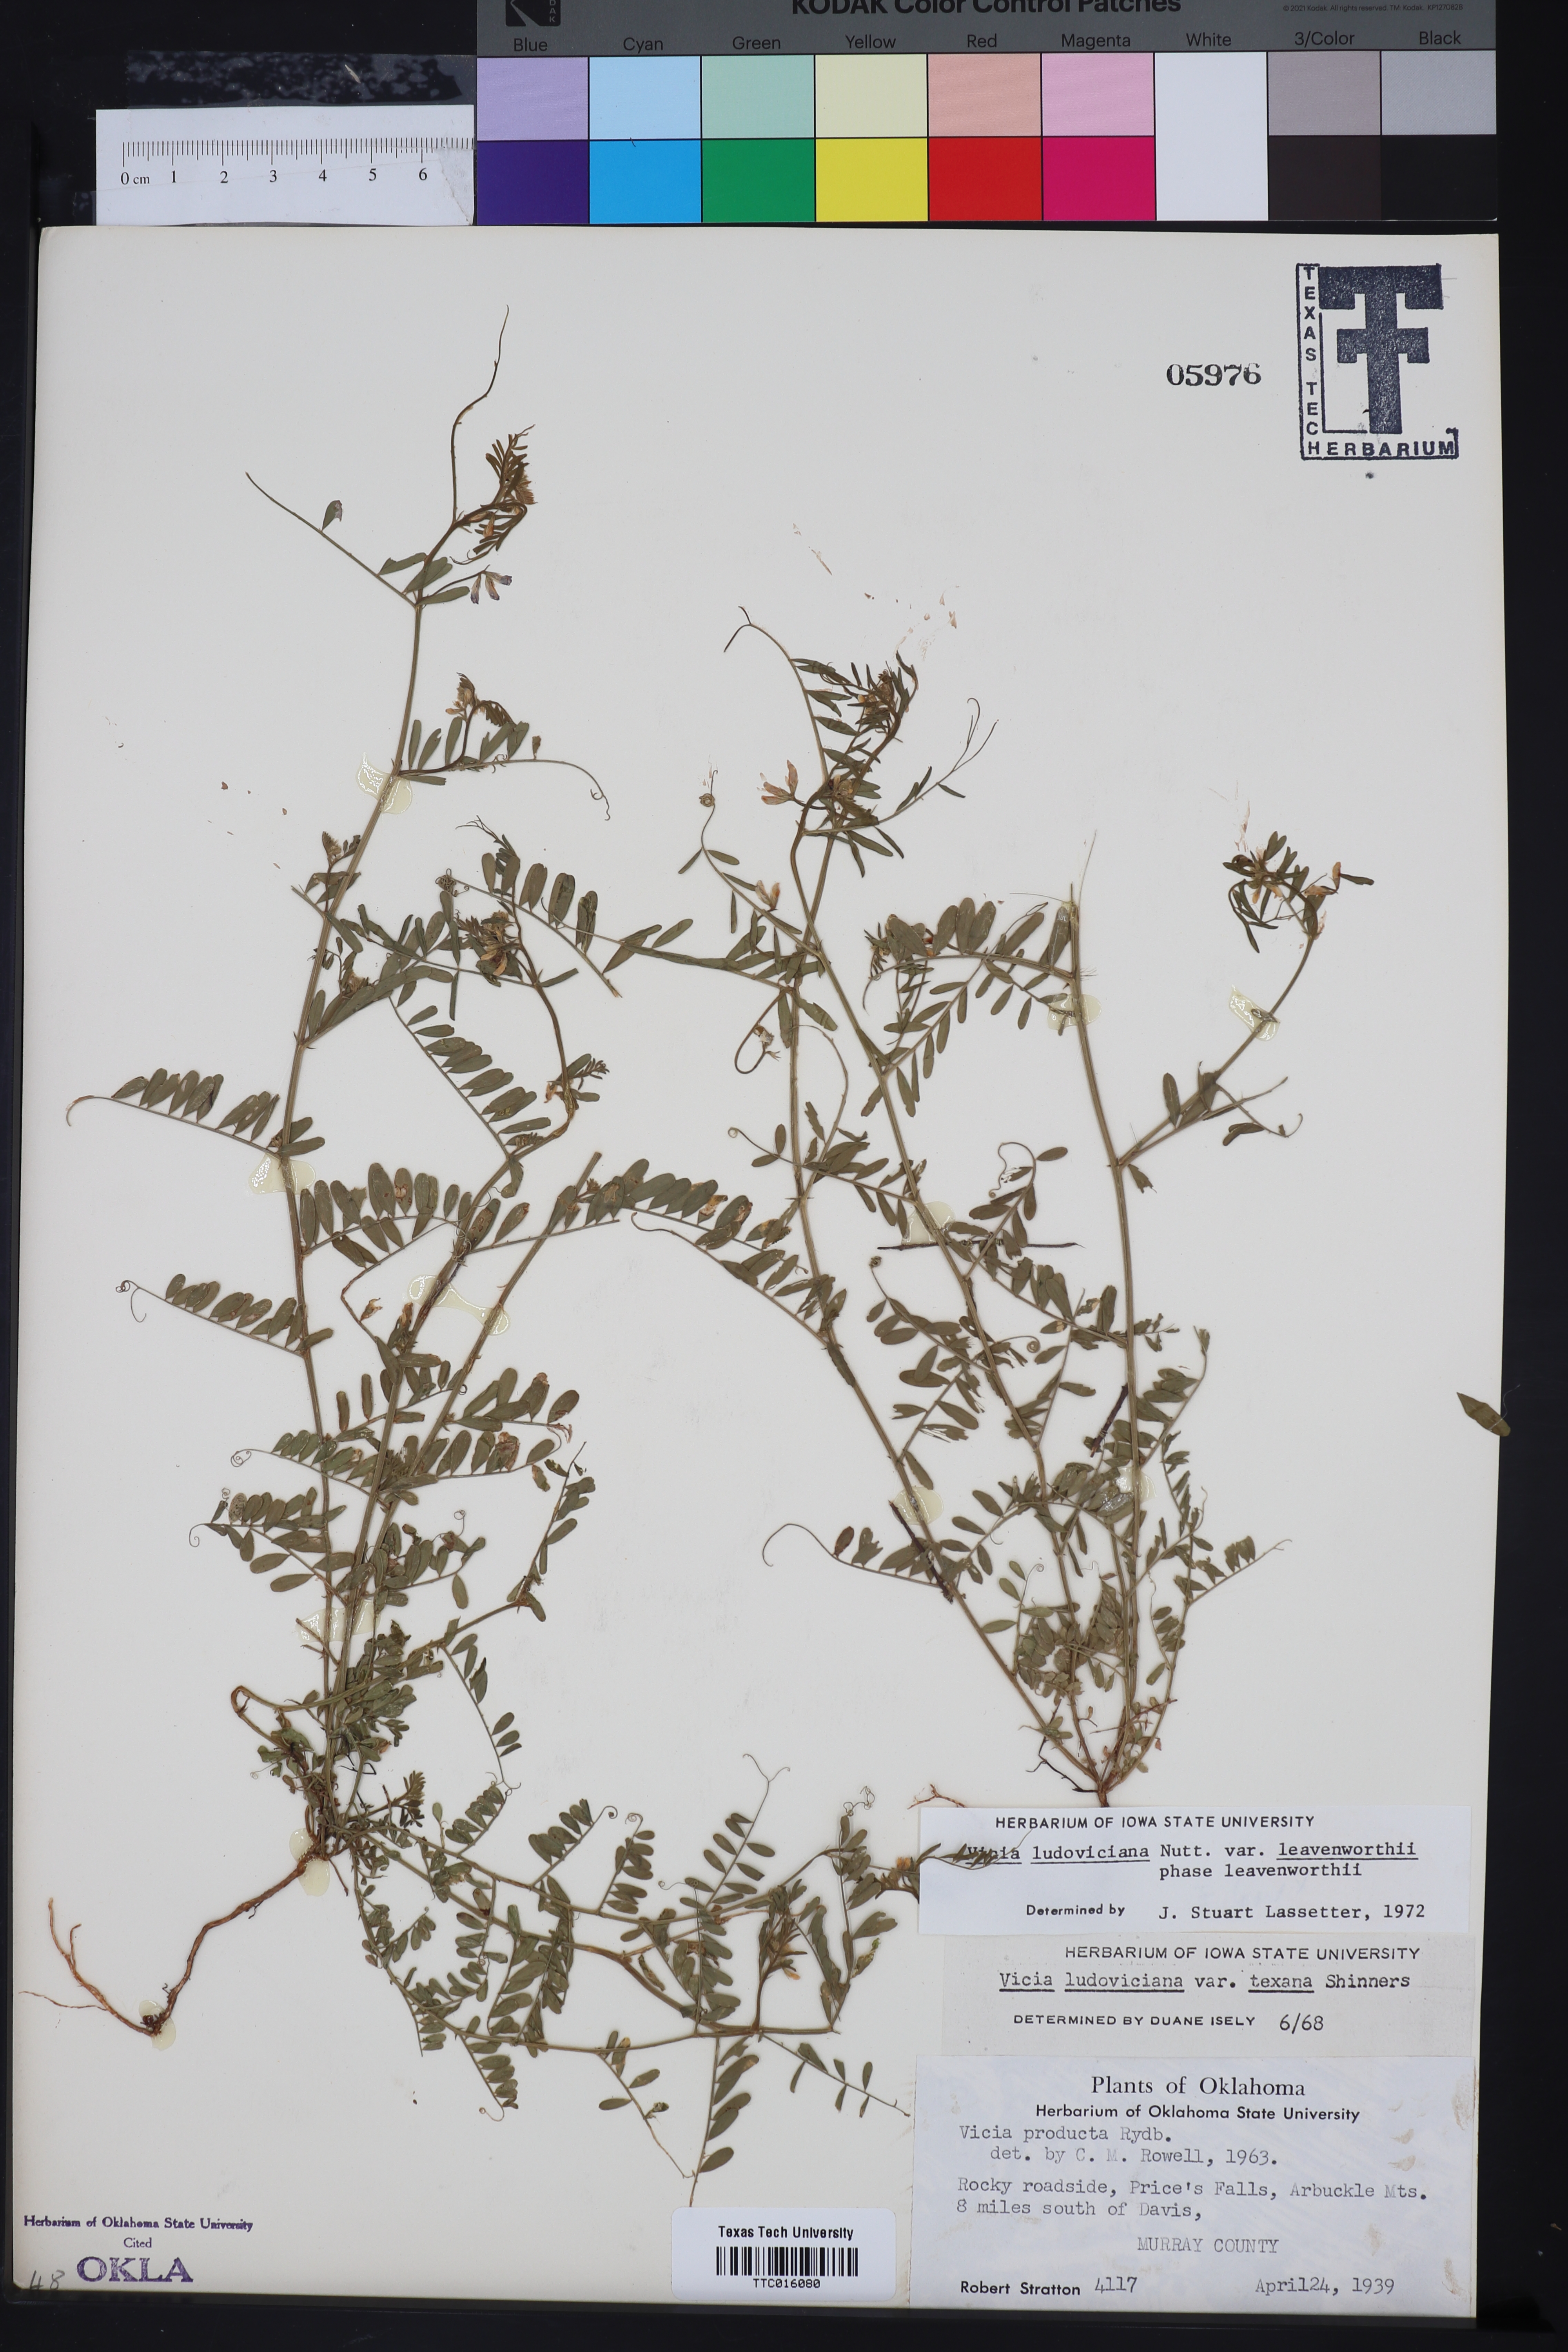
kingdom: Plantae
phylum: Tracheophyta
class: Magnoliopsida
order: Fabales
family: Fabaceae
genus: Vicia
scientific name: Vicia ludoviciana
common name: Louisiana vetch
